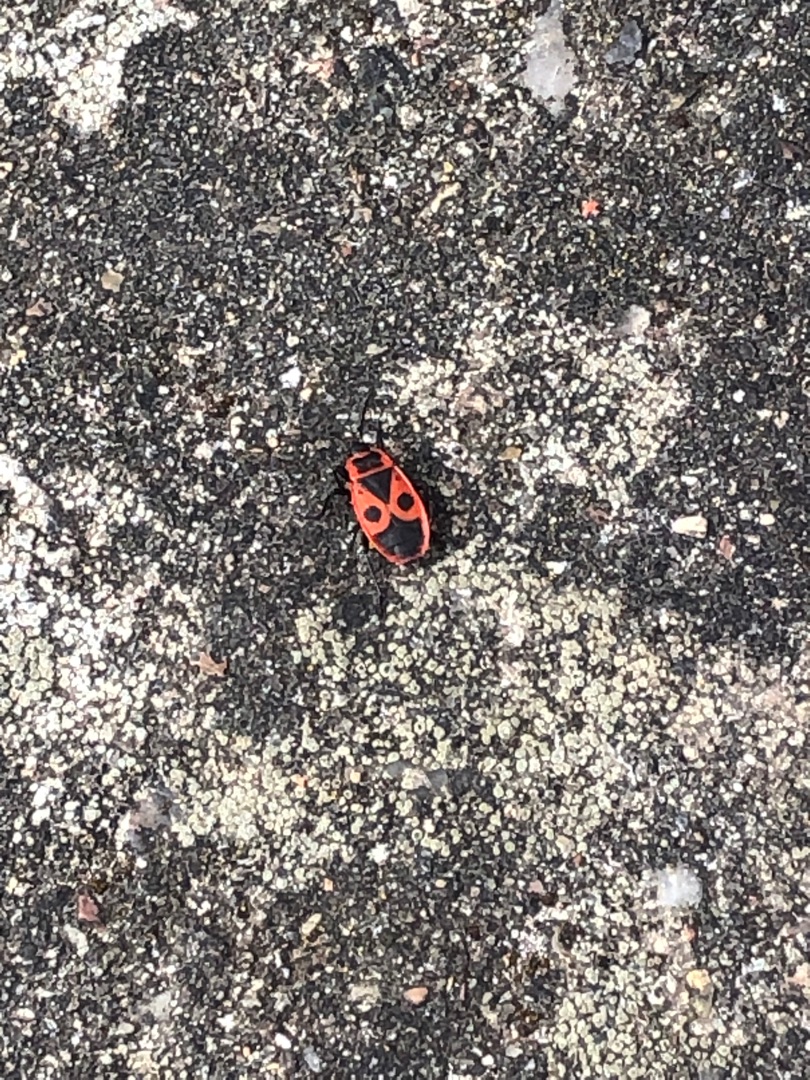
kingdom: Animalia
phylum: Arthropoda
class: Insecta
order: Hemiptera
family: Pyrrhocoridae
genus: Pyrrhocoris
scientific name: Pyrrhocoris apterus
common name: Ildtæge
